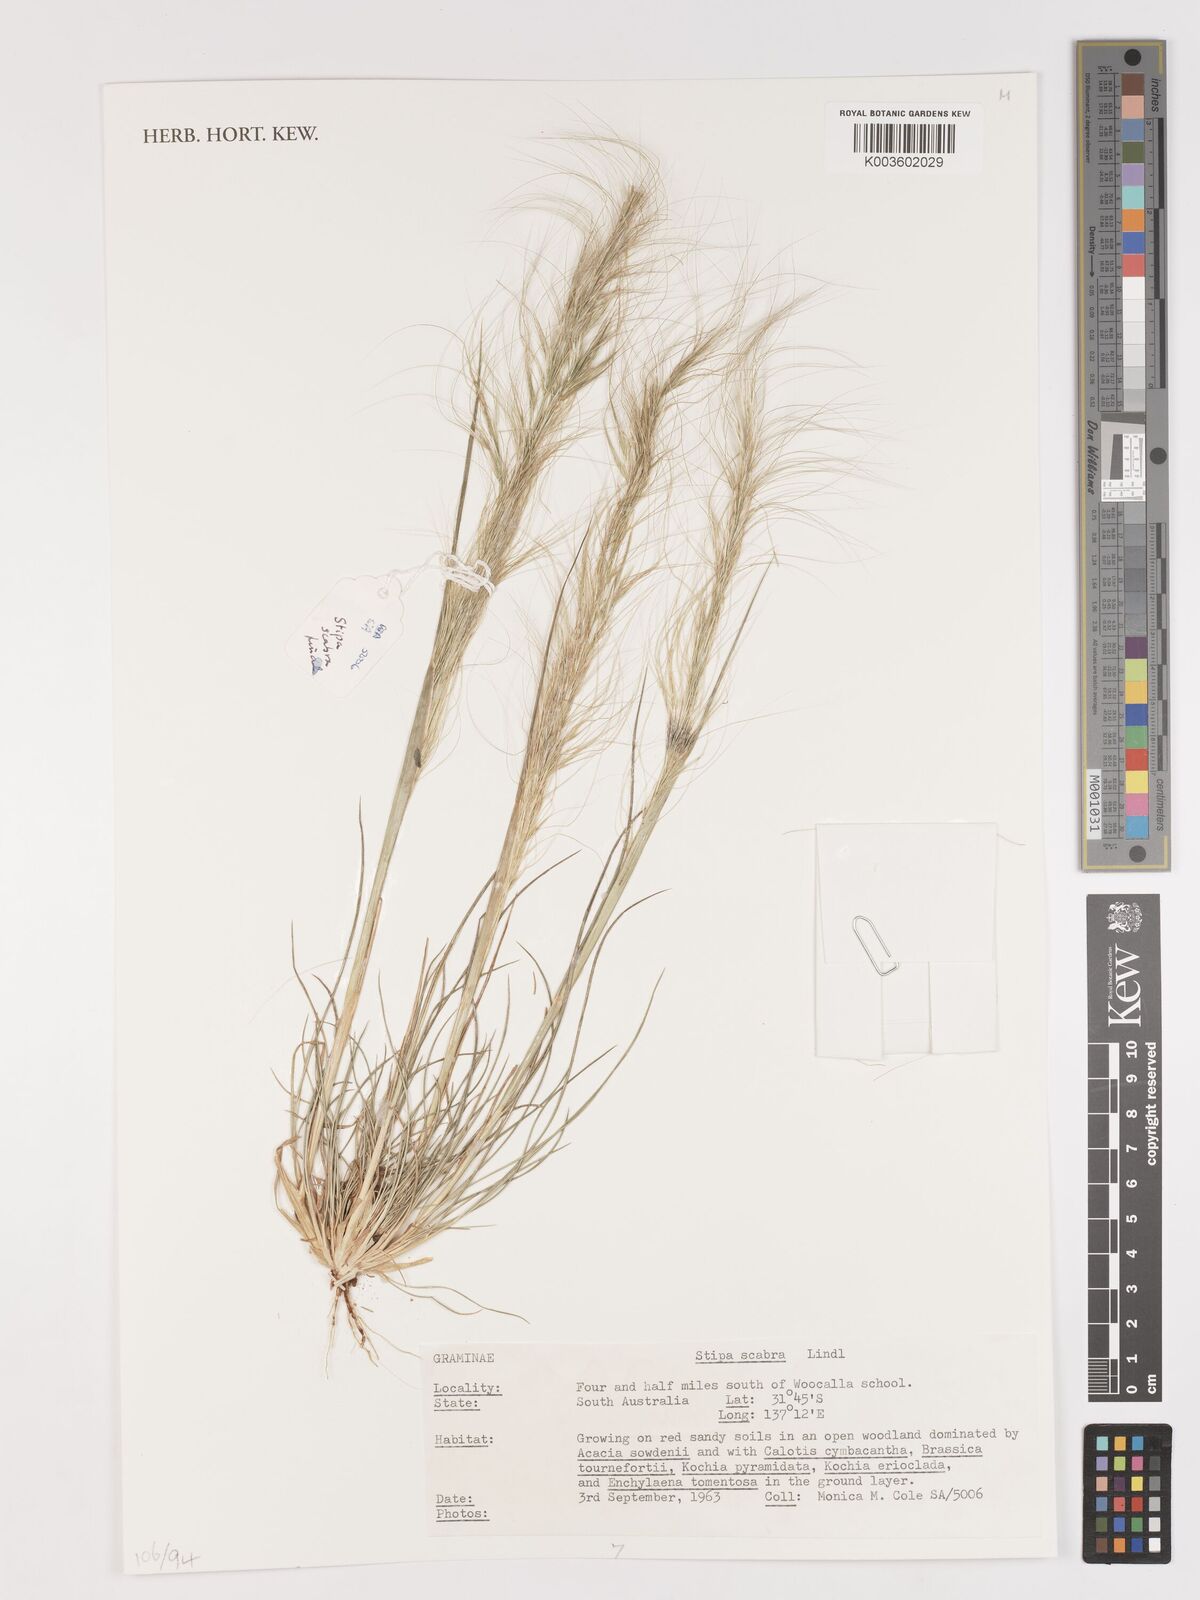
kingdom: Plantae
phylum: Tracheophyta
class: Liliopsida
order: Poales
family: Poaceae
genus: Austrostipa
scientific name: Austrostipa scabra
